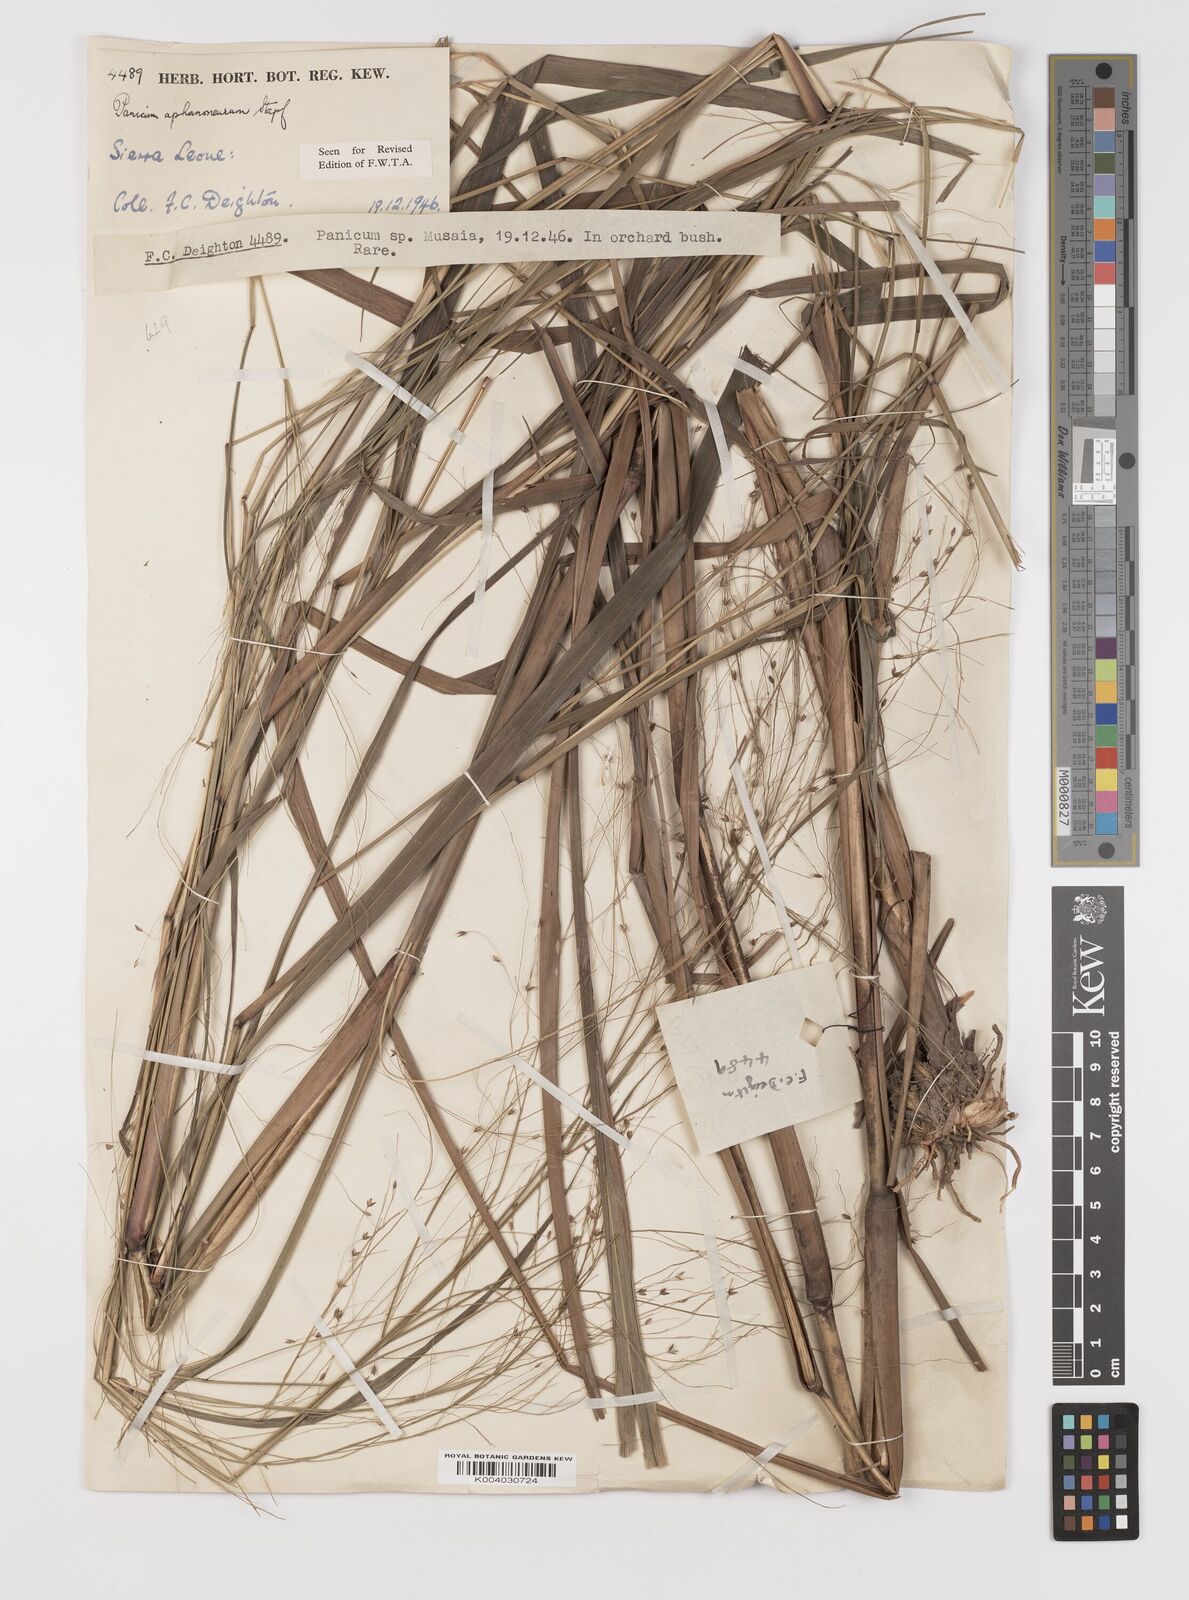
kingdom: Plantae
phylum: Tracheophyta
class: Liliopsida
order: Poales
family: Poaceae
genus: Panicum
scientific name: Panicum fluviicola
